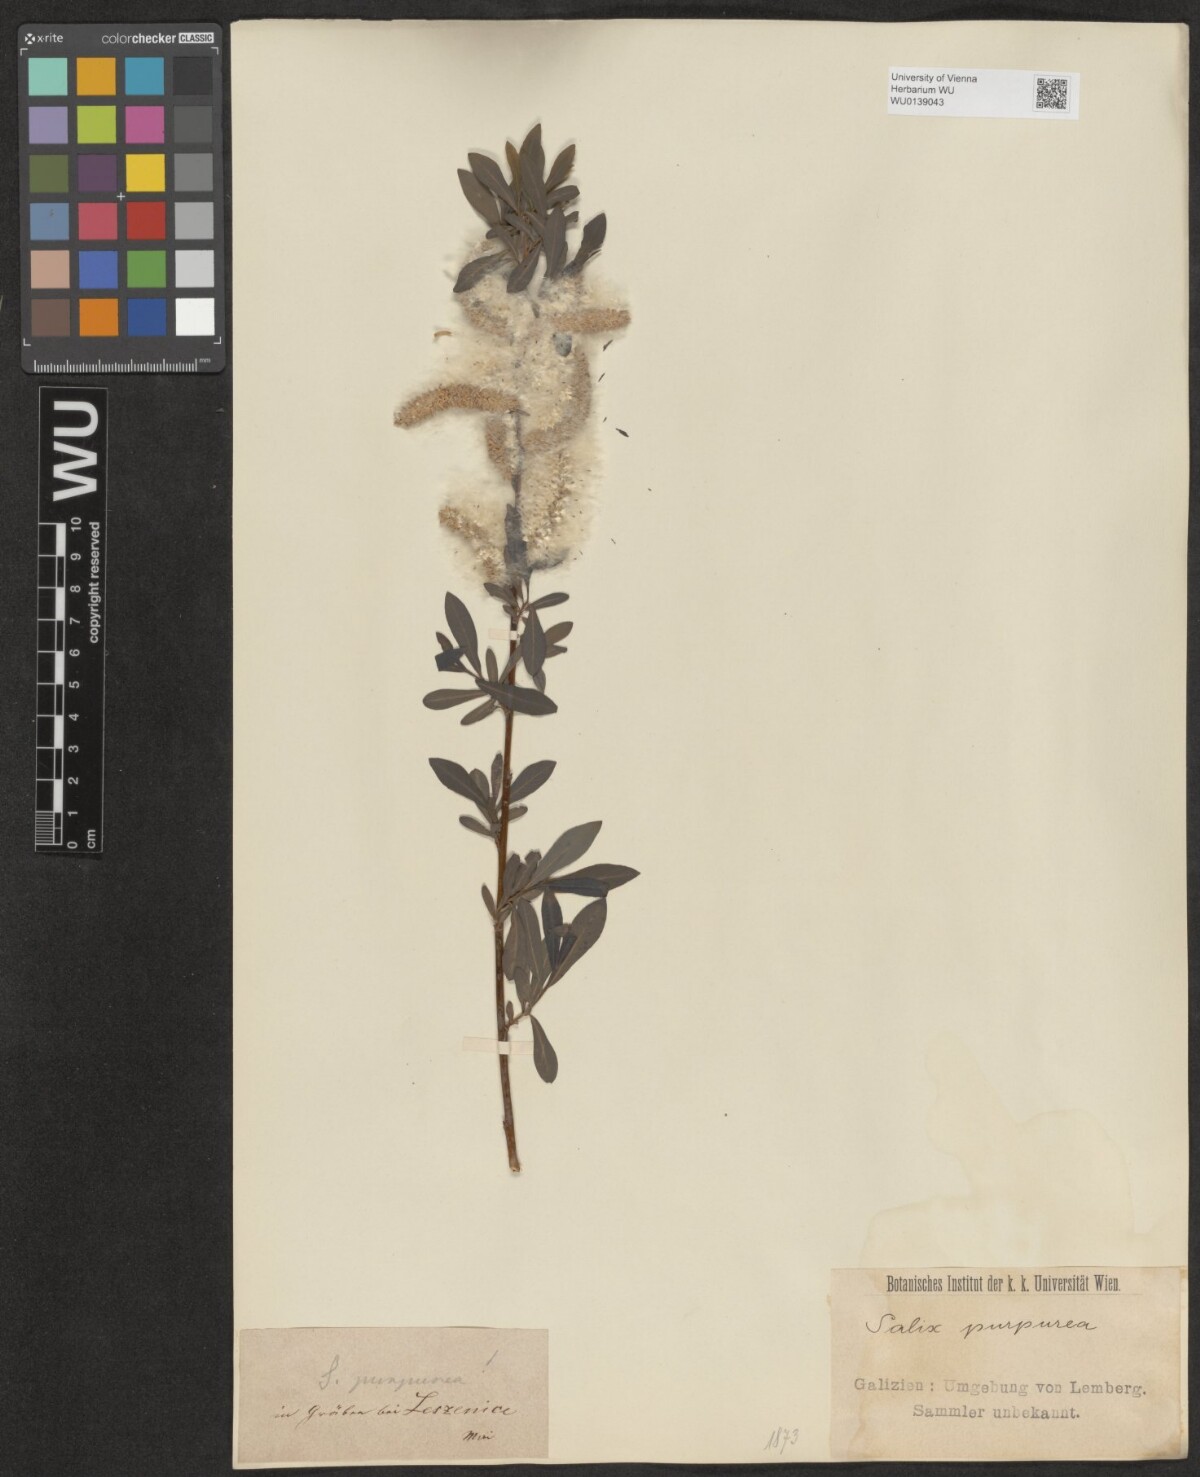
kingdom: Plantae
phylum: Tracheophyta
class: Magnoliopsida
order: Malpighiales
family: Salicaceae
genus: Salix
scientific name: Salix purpurea
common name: Purple willow
